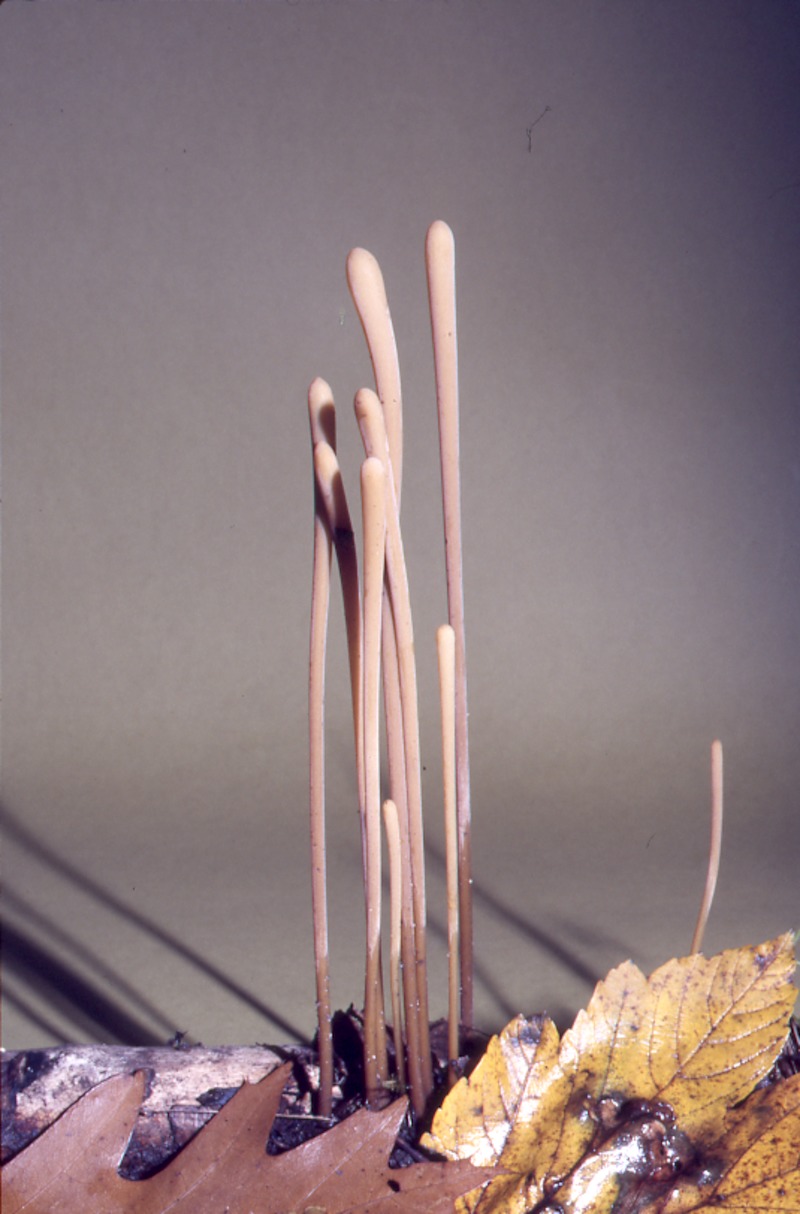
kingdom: Fungi
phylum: Basidiomycota
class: Agaricomycetes
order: Agaricales
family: Typhulaceae
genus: Typhula
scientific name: Typhula fistulosa
